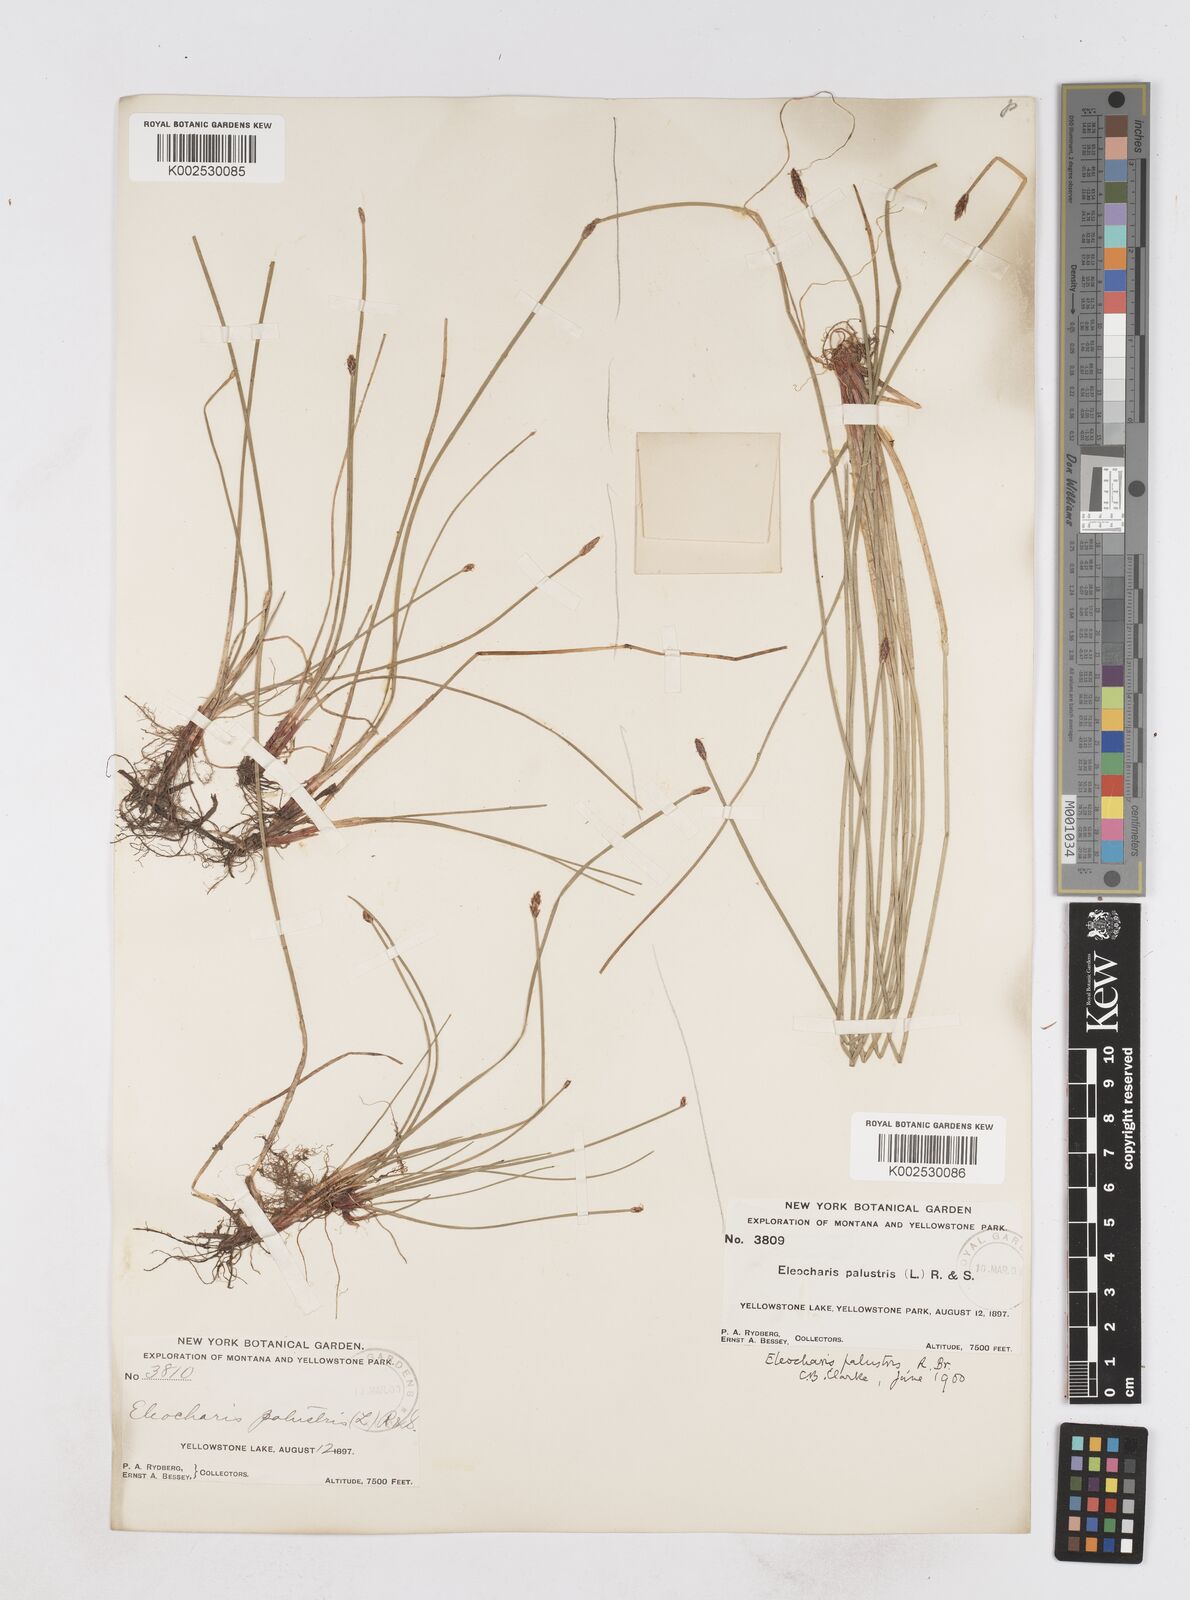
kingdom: Plantae
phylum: Tracheophyta
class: Liliopsida
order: Poales
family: Cyperaceae
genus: Eleocharis
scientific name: Eleocharis palustris
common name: Common spike-rush
